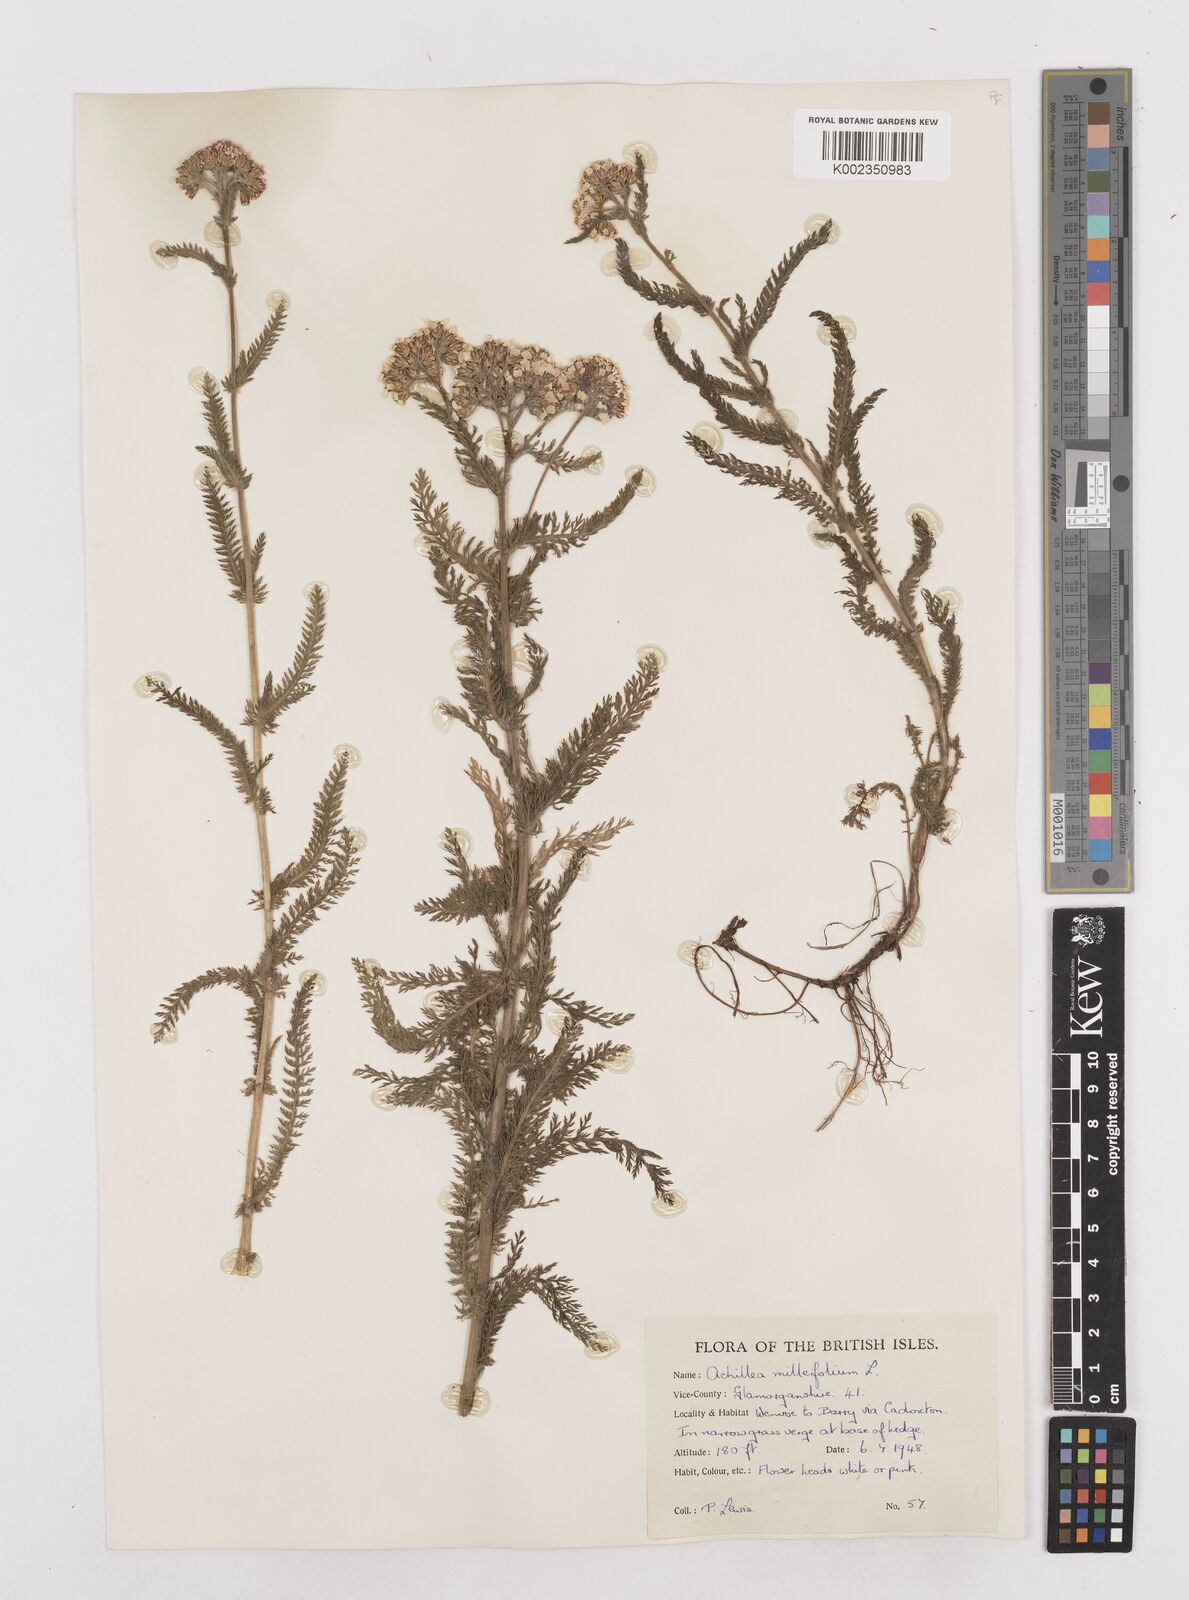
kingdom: Plantae
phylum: Tracheophyta
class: Magnoliopsida
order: Asterales
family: Asteraceae
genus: Achillea
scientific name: Achillea millefolium
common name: Yarrow
